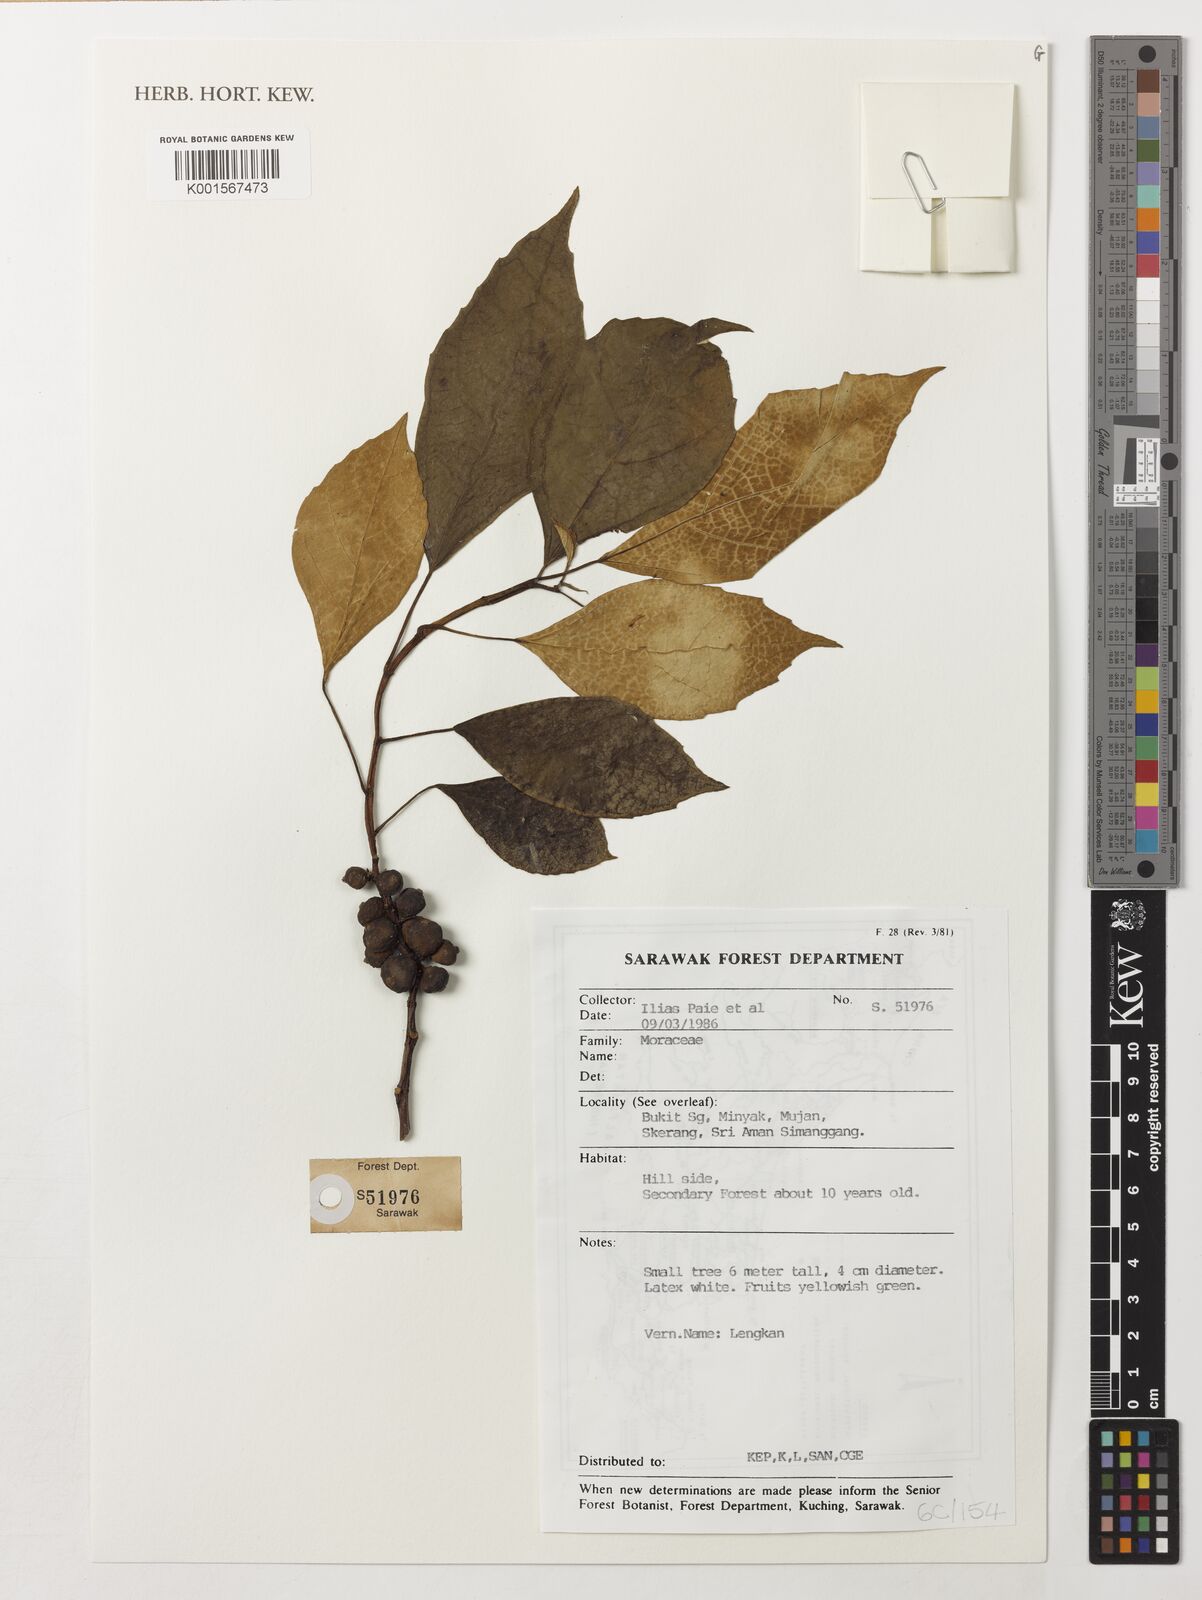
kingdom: Plantae
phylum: Tracheophyta
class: Magnoliopsida
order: Rosales
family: Moraceae
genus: Ficus
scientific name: Ficus
